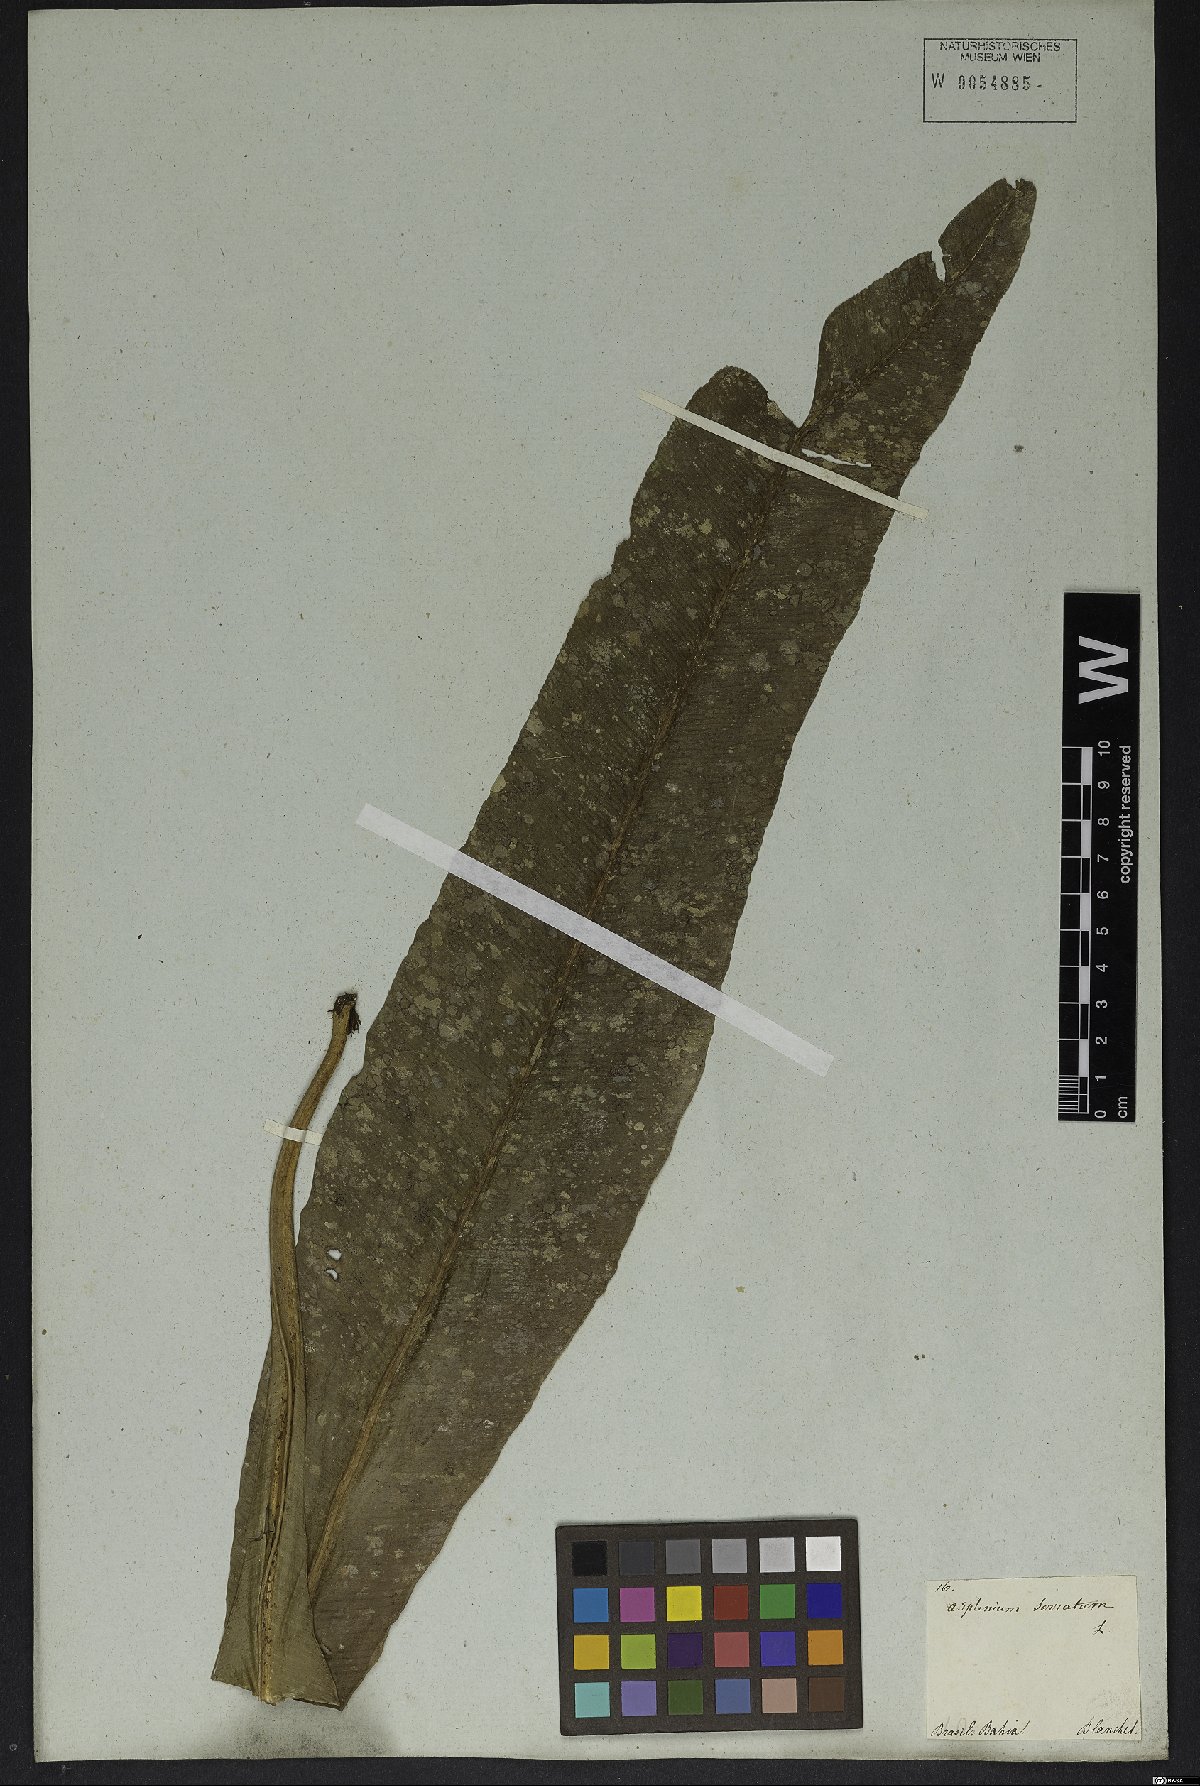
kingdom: Plantae
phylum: Tracheophyta
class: Polypodiopsida
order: Polypodiales
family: Aspleniaceae
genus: Asplenium
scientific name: Asplenium serratum
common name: Wild birdnest fern
